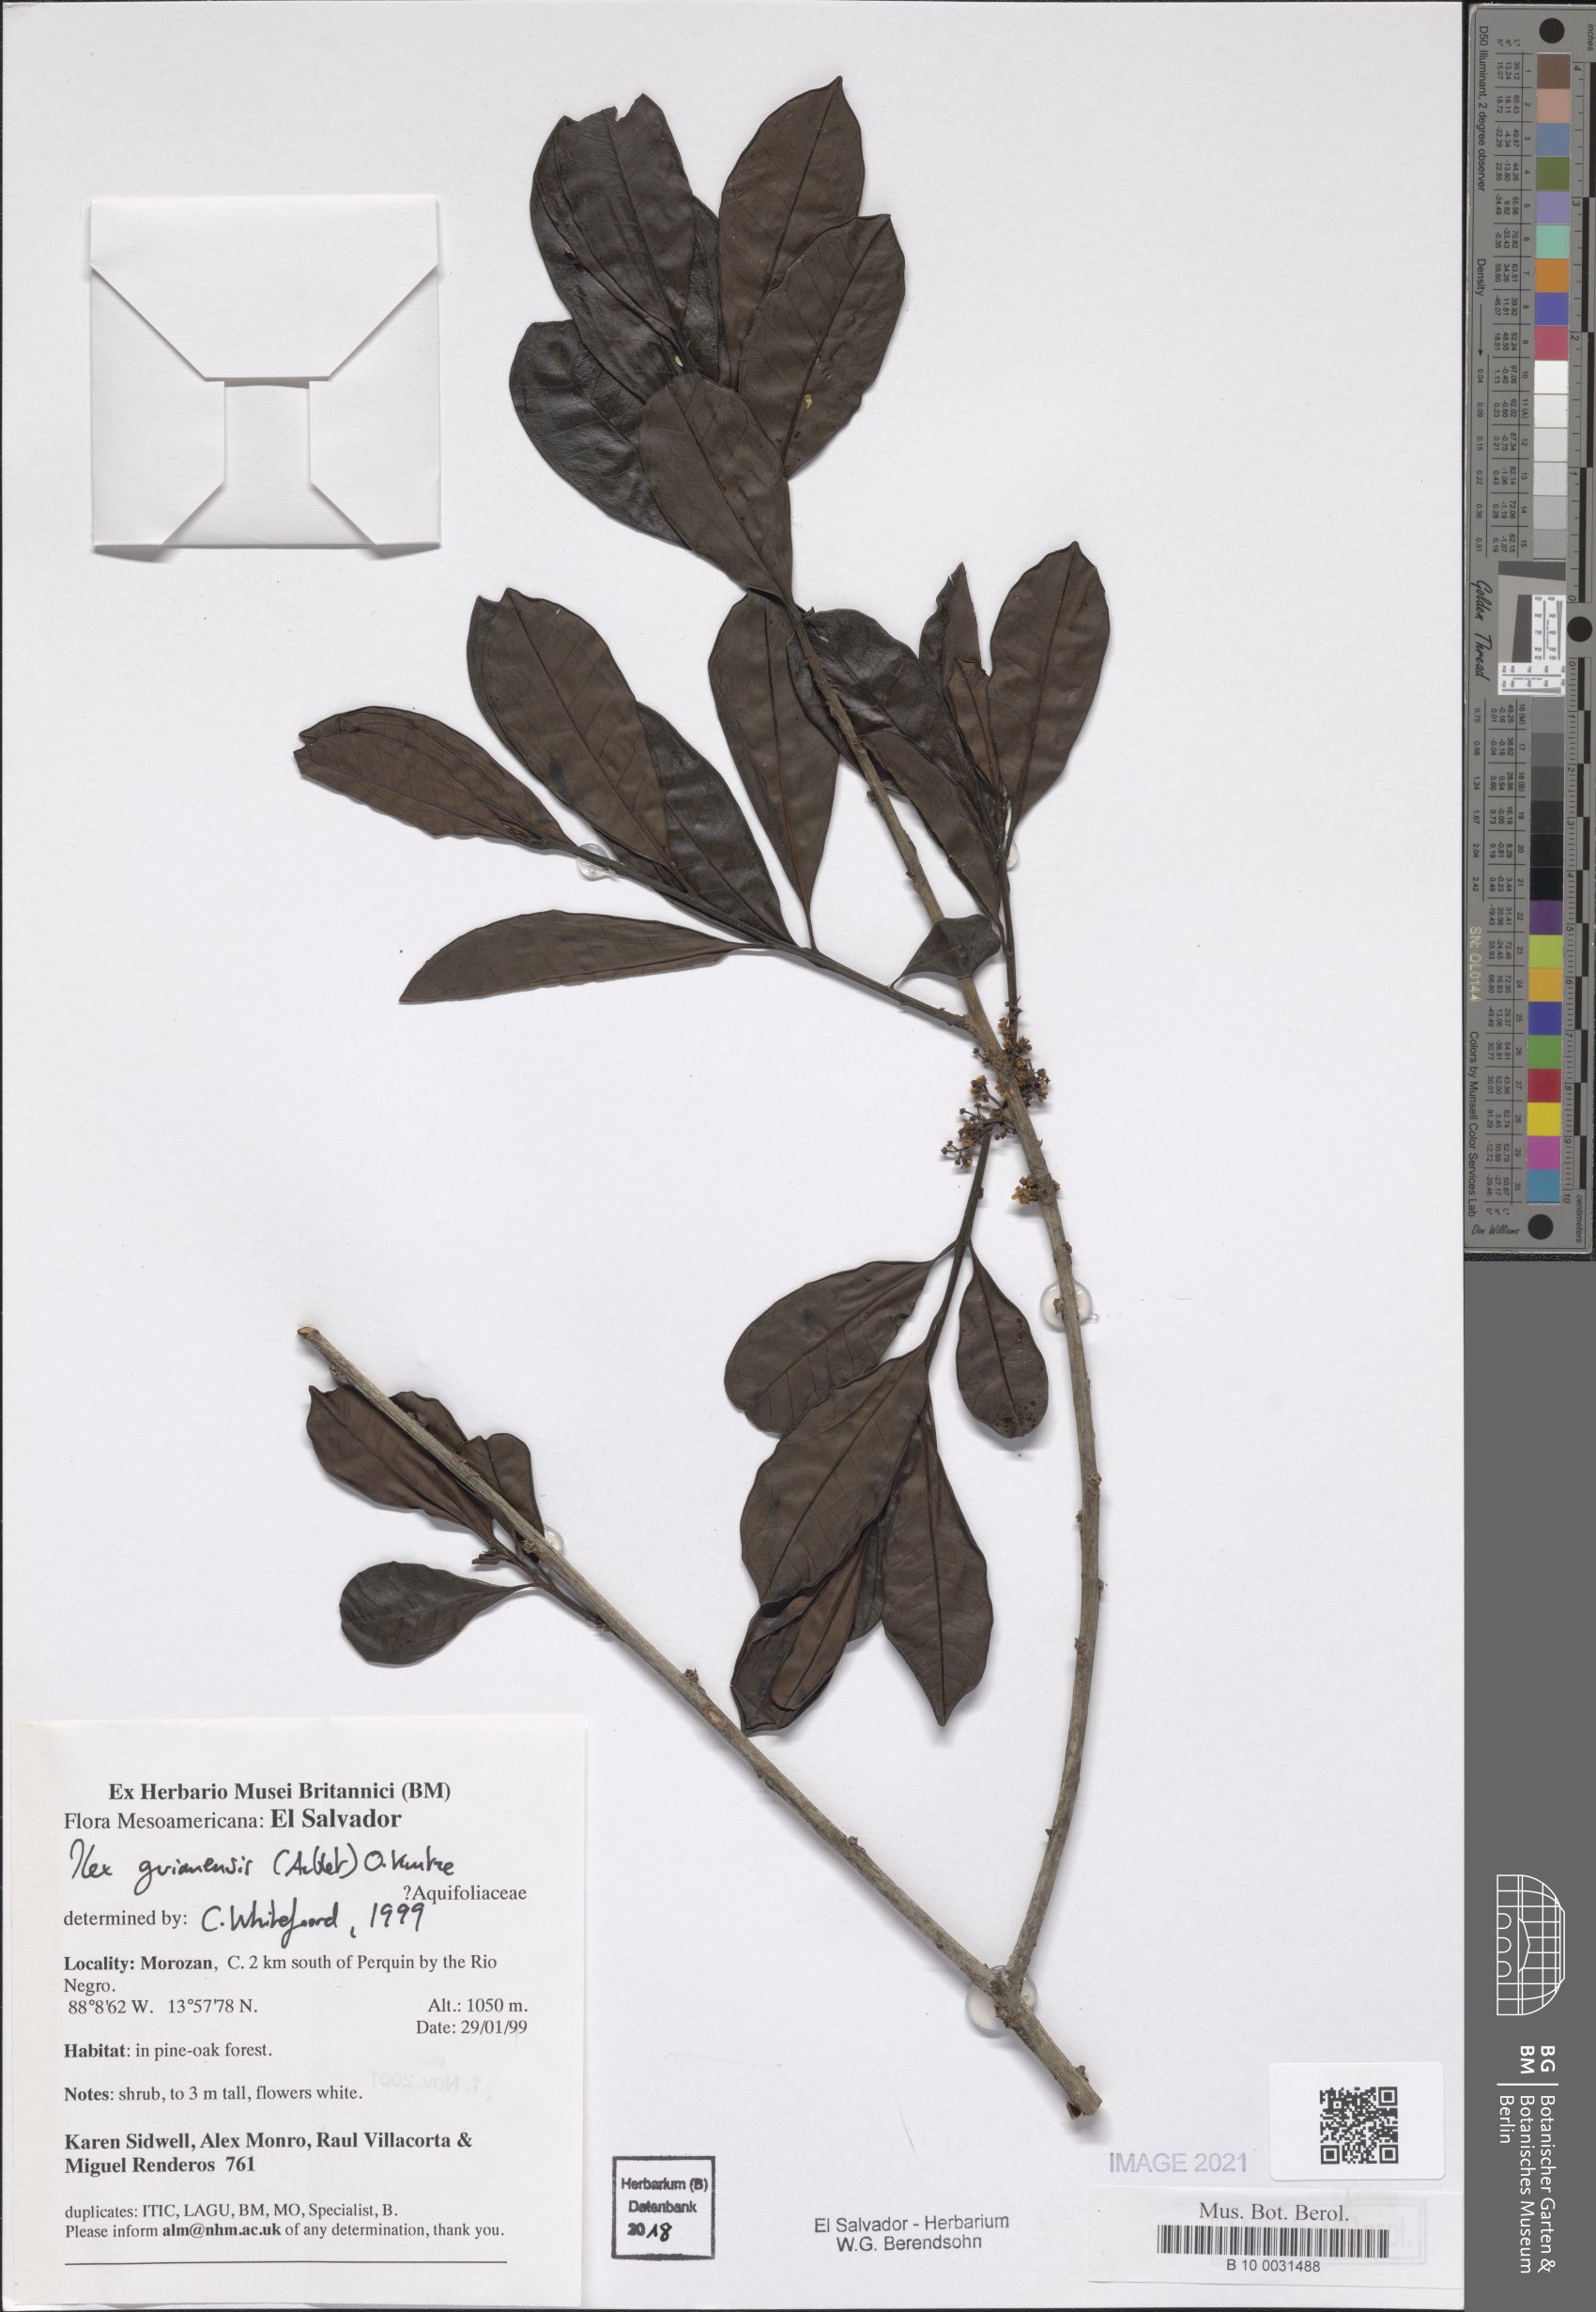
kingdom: Plantae
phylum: Tracheophyta
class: Magnoliopsida
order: Aquifoliales
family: Aquifoliaceae
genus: Ilex
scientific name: Ilex guianensis
